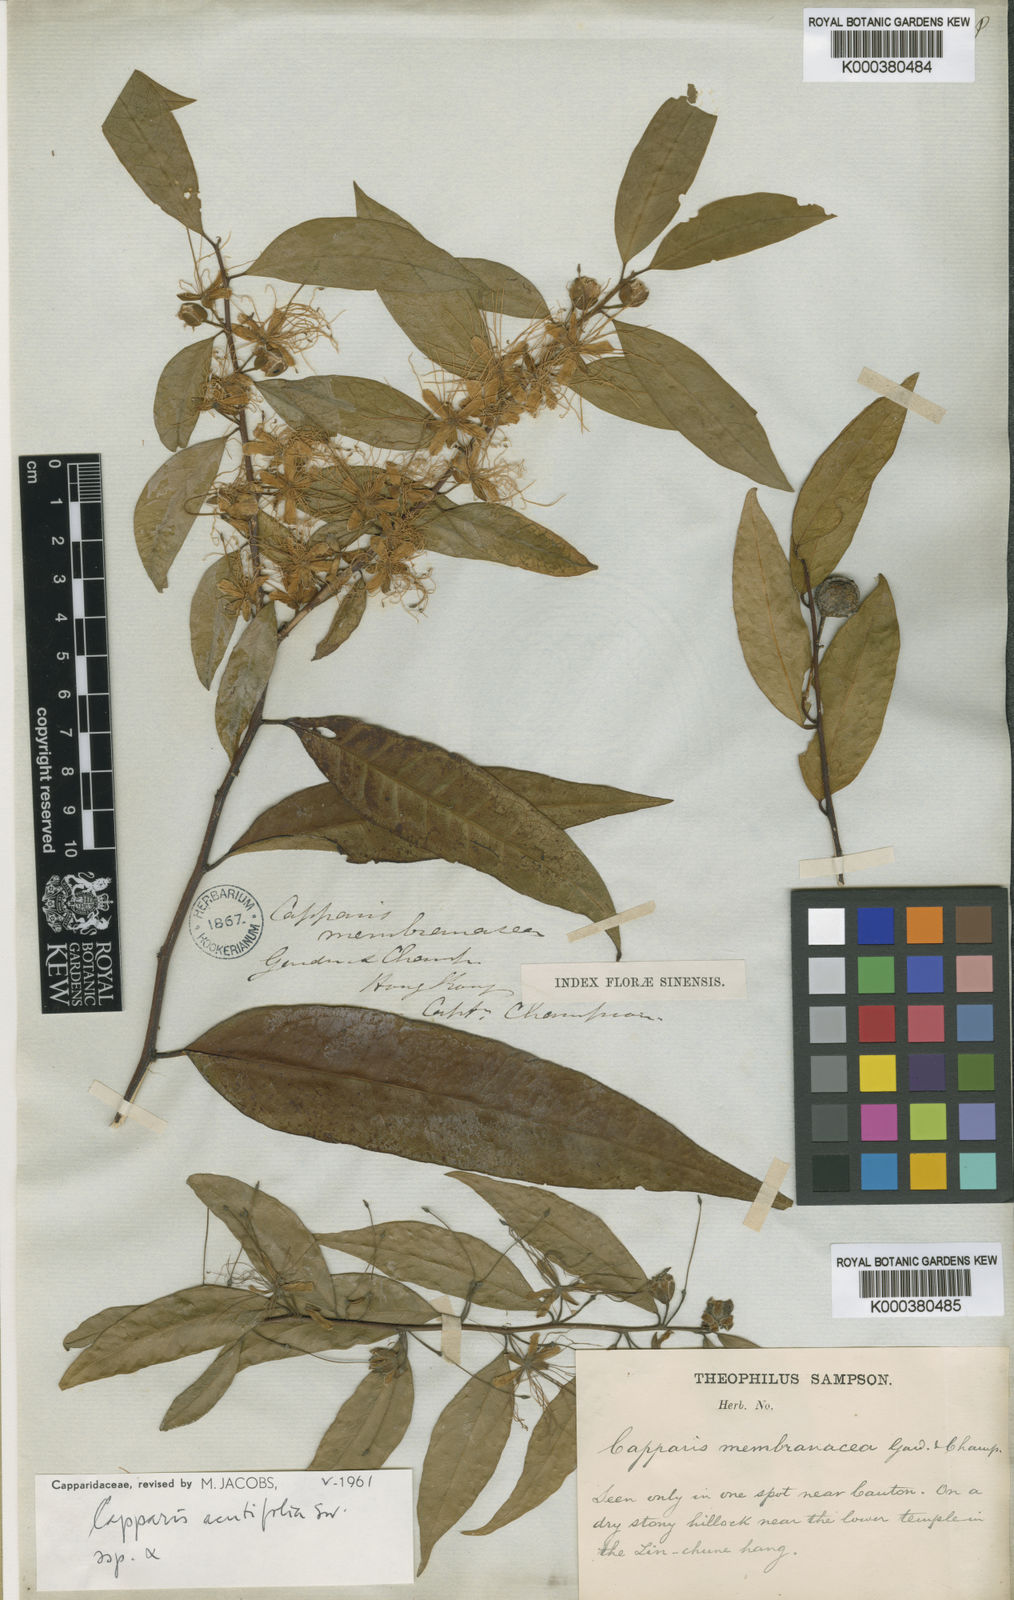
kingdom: Plantae
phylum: Tracheophyta
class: Magnoliopsida
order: Brassicales
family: Capparaceae
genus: Capparis
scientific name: Capparis acutifolia
